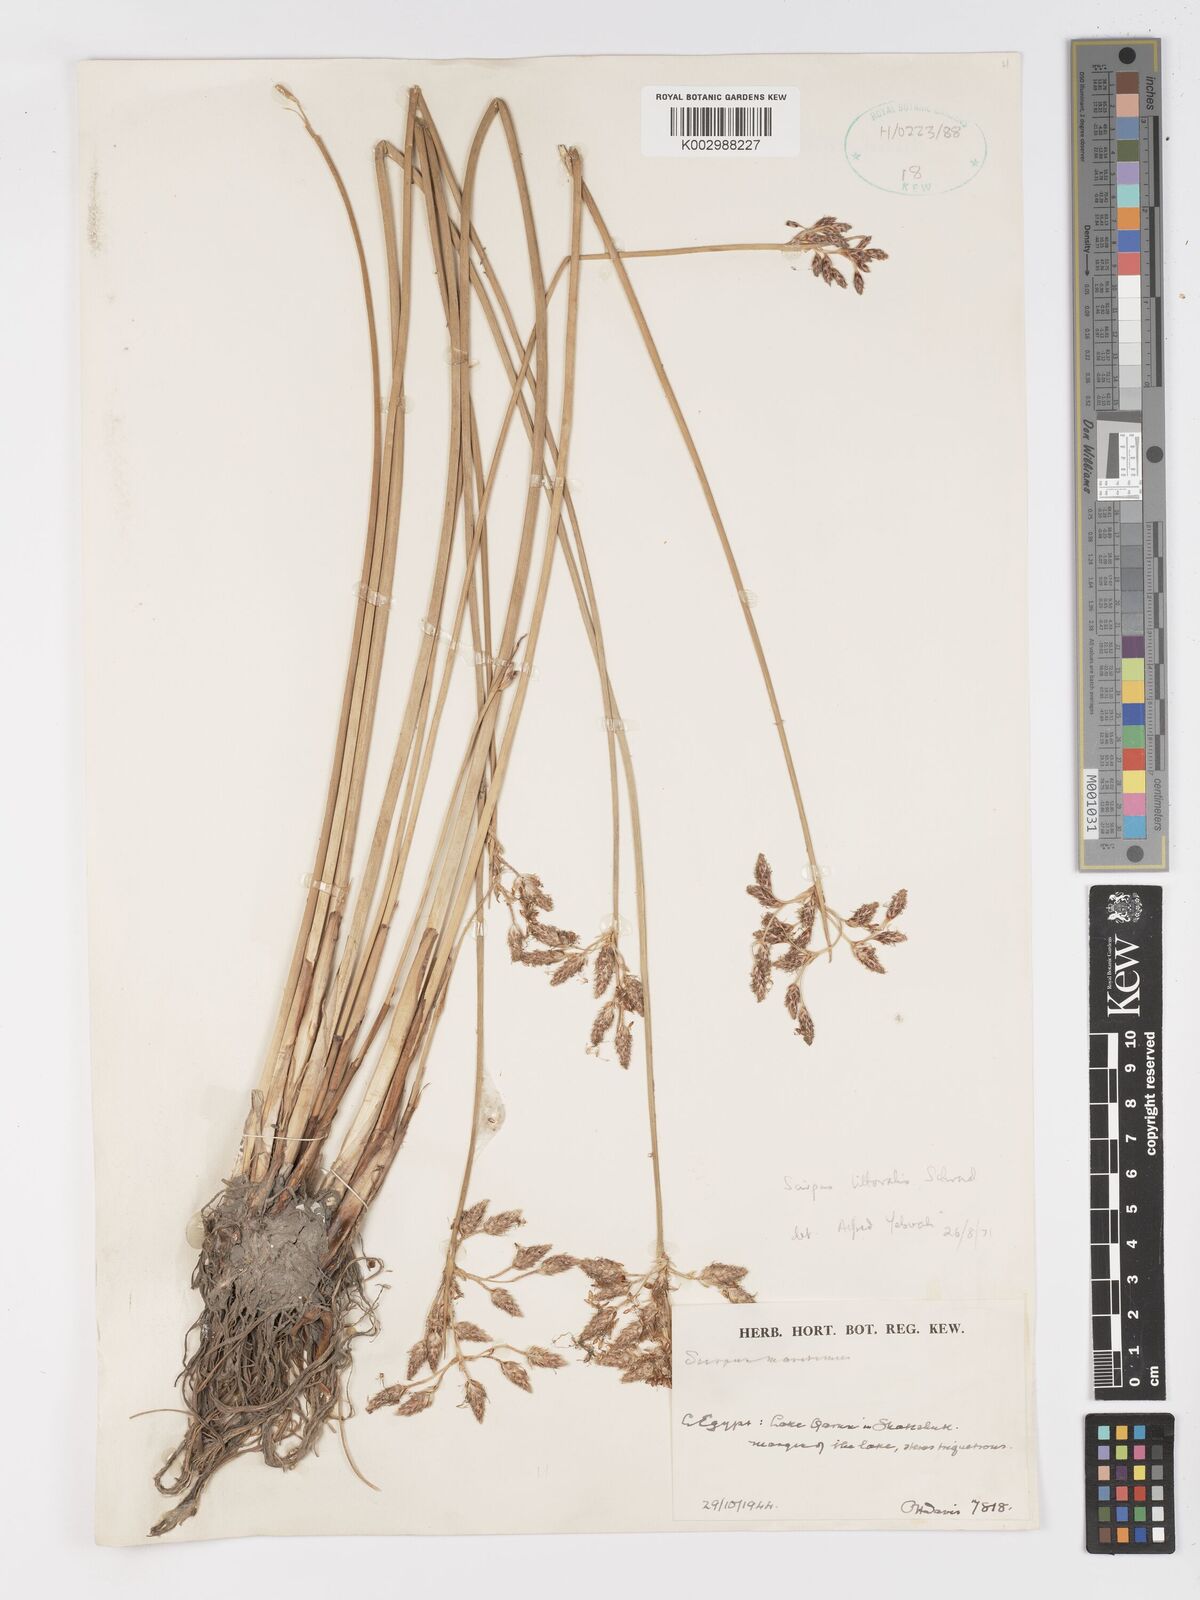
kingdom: Plantae
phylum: Tracheophyta
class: Liliopsida
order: Poales
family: Cyperaceae
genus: Schoenoplectus
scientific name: Schoenoplectus litoralis
